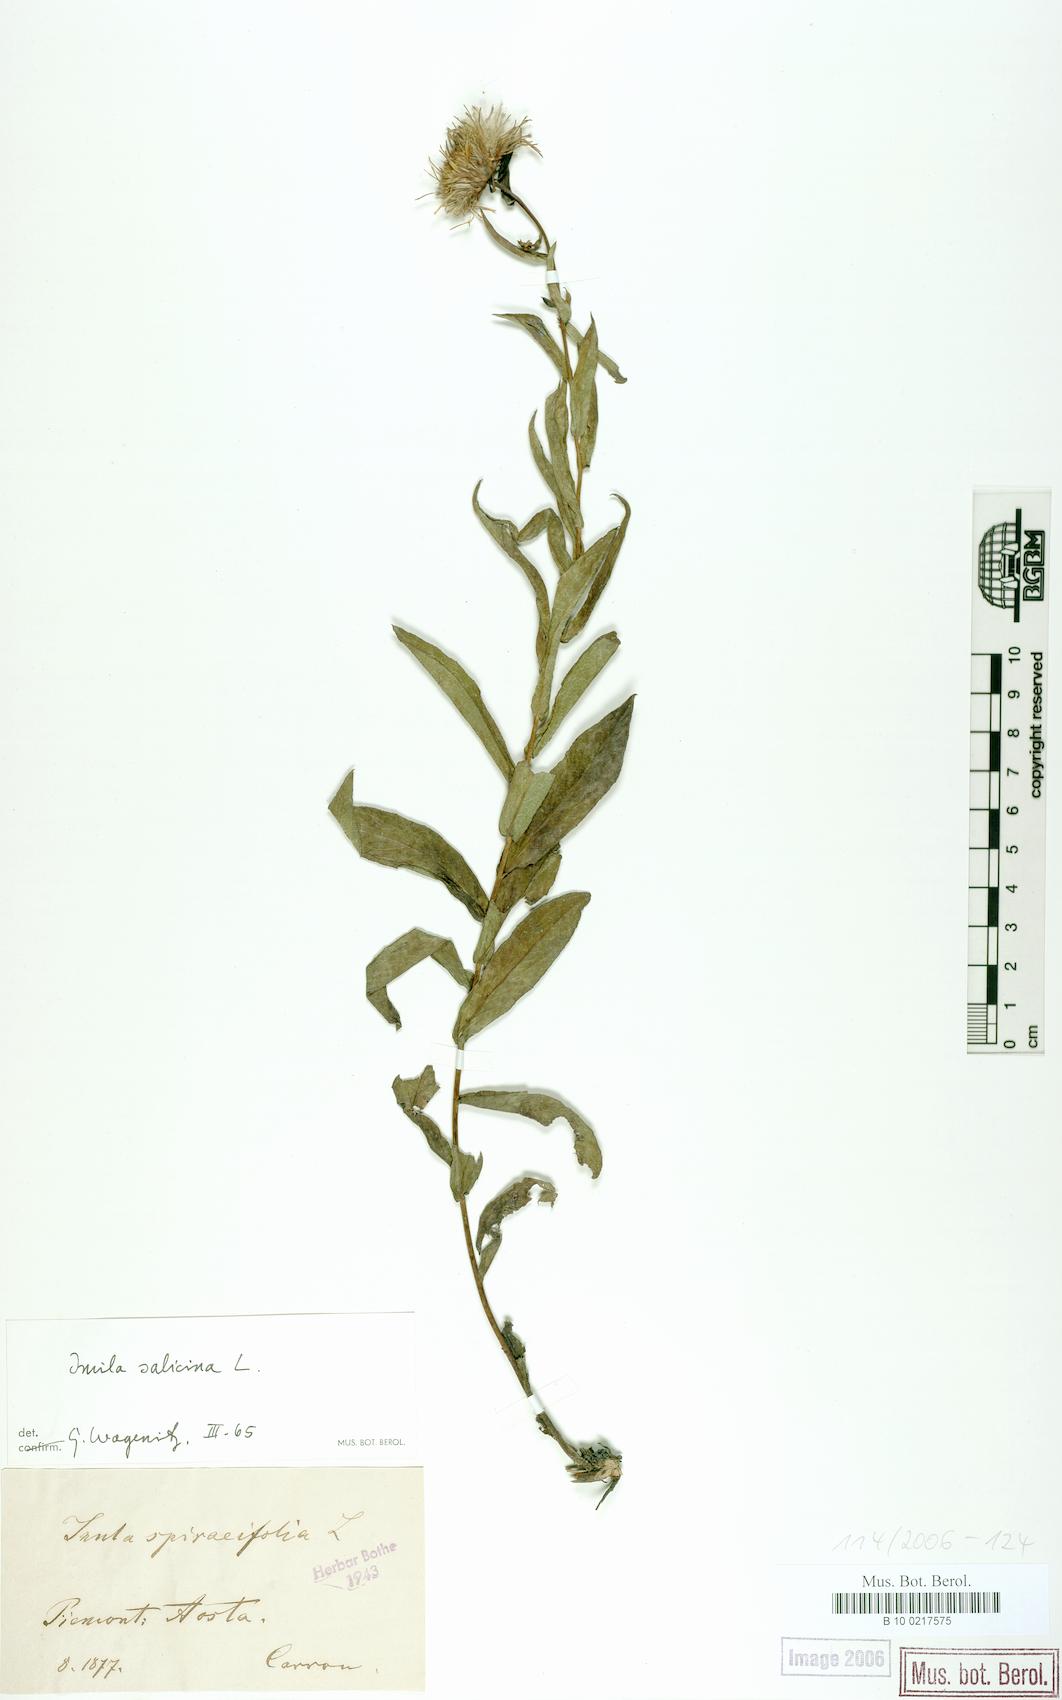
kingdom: Plantae
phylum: Tracheophyta
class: Magnoliopsida
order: Asterales
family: Asteraceae
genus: Pentanema
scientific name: Pentanema salicinum
